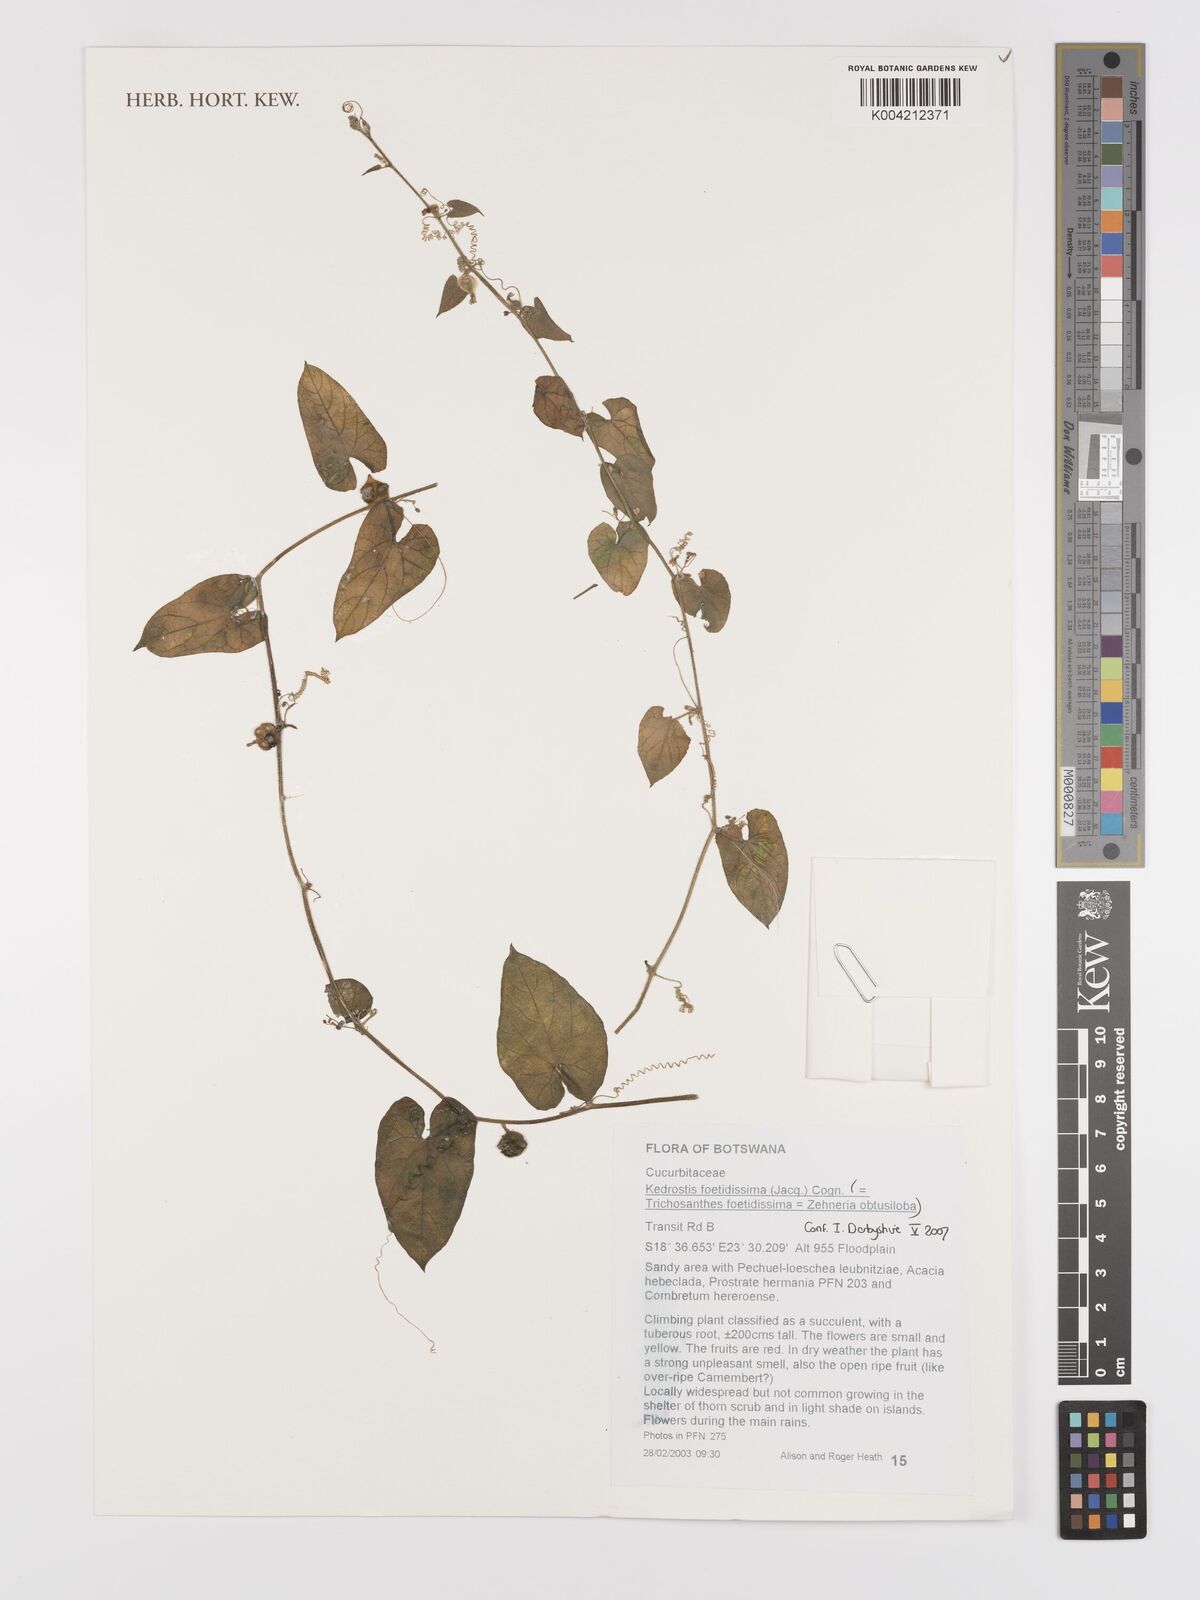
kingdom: Plantae
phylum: Tracheophyta
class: Magnoliopsida
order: Cucurbitales
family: Cucurbitaceae
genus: Kedrostis
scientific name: Kedrostis foetidissima
